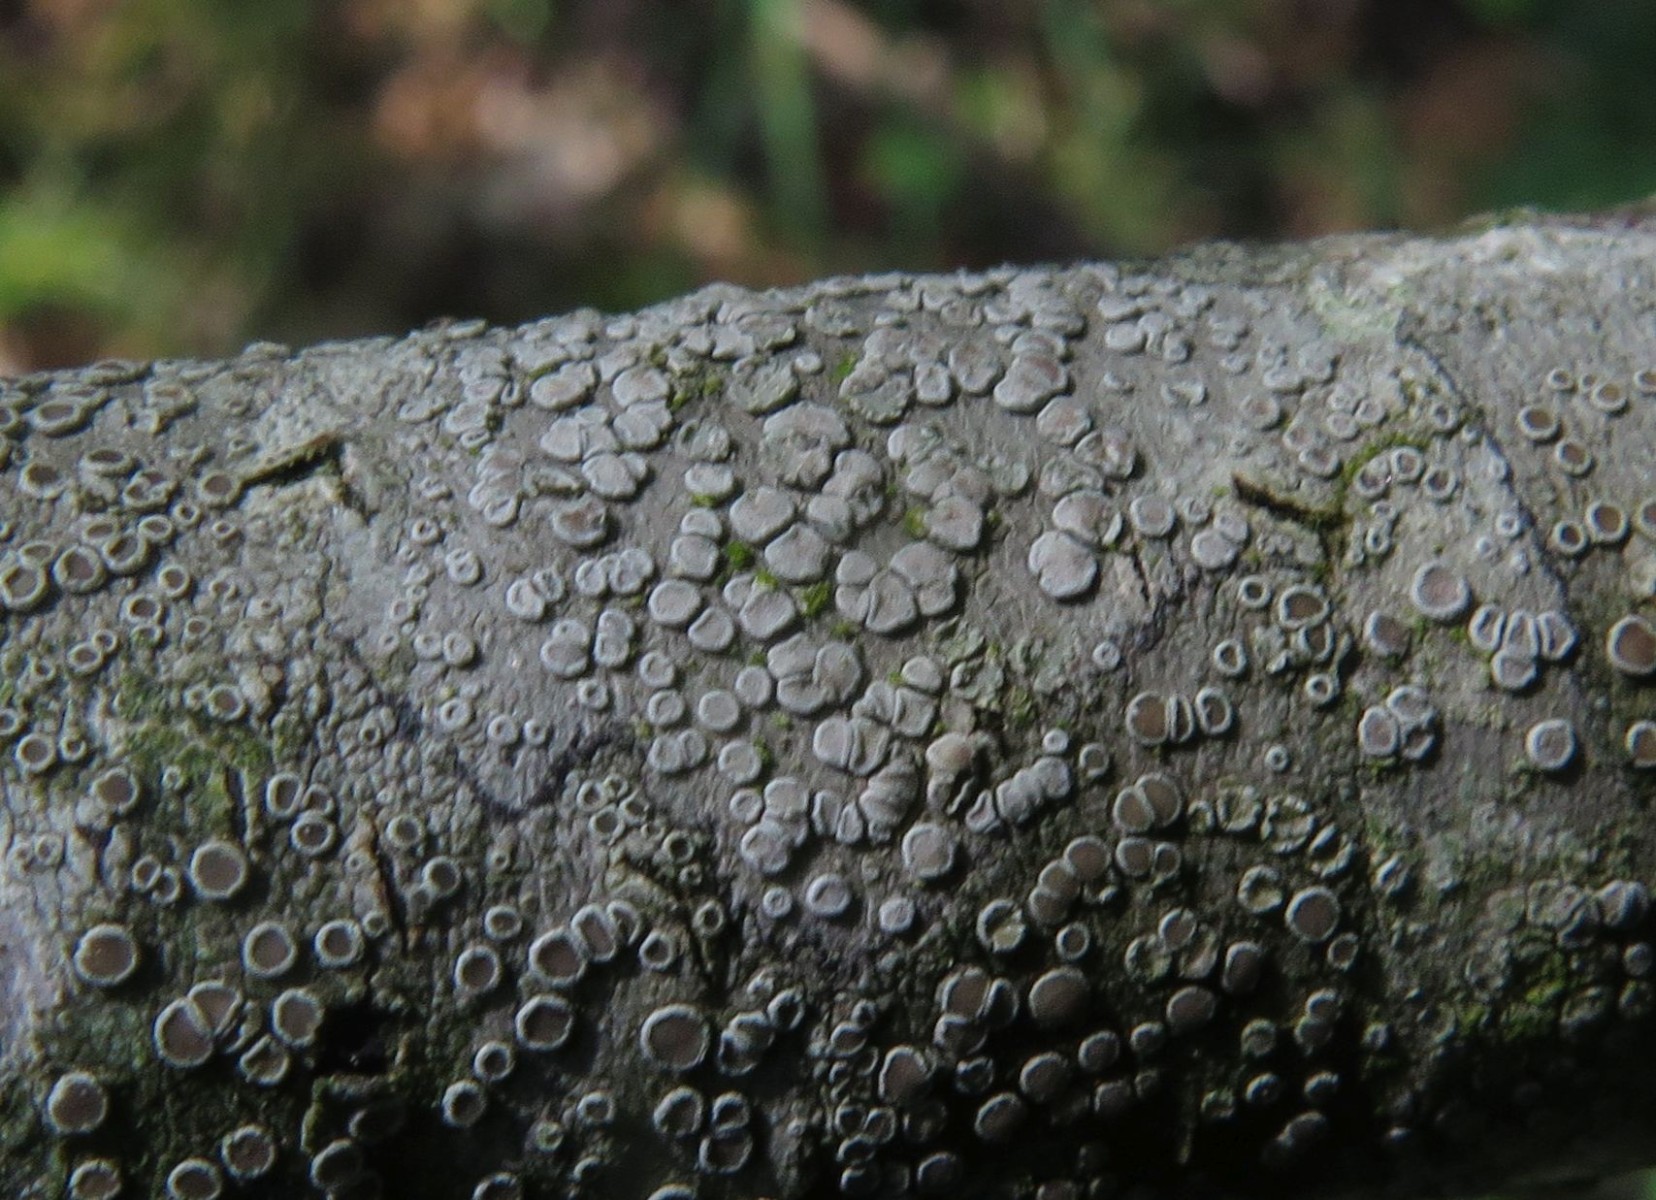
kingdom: Fungi
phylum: Ascomycota
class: Lecanoromycetes
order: Lecanorales
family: Lecanoraceae
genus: Glaucomaria
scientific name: Glaucomaria carpinea
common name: hviddugget kantskivelav
